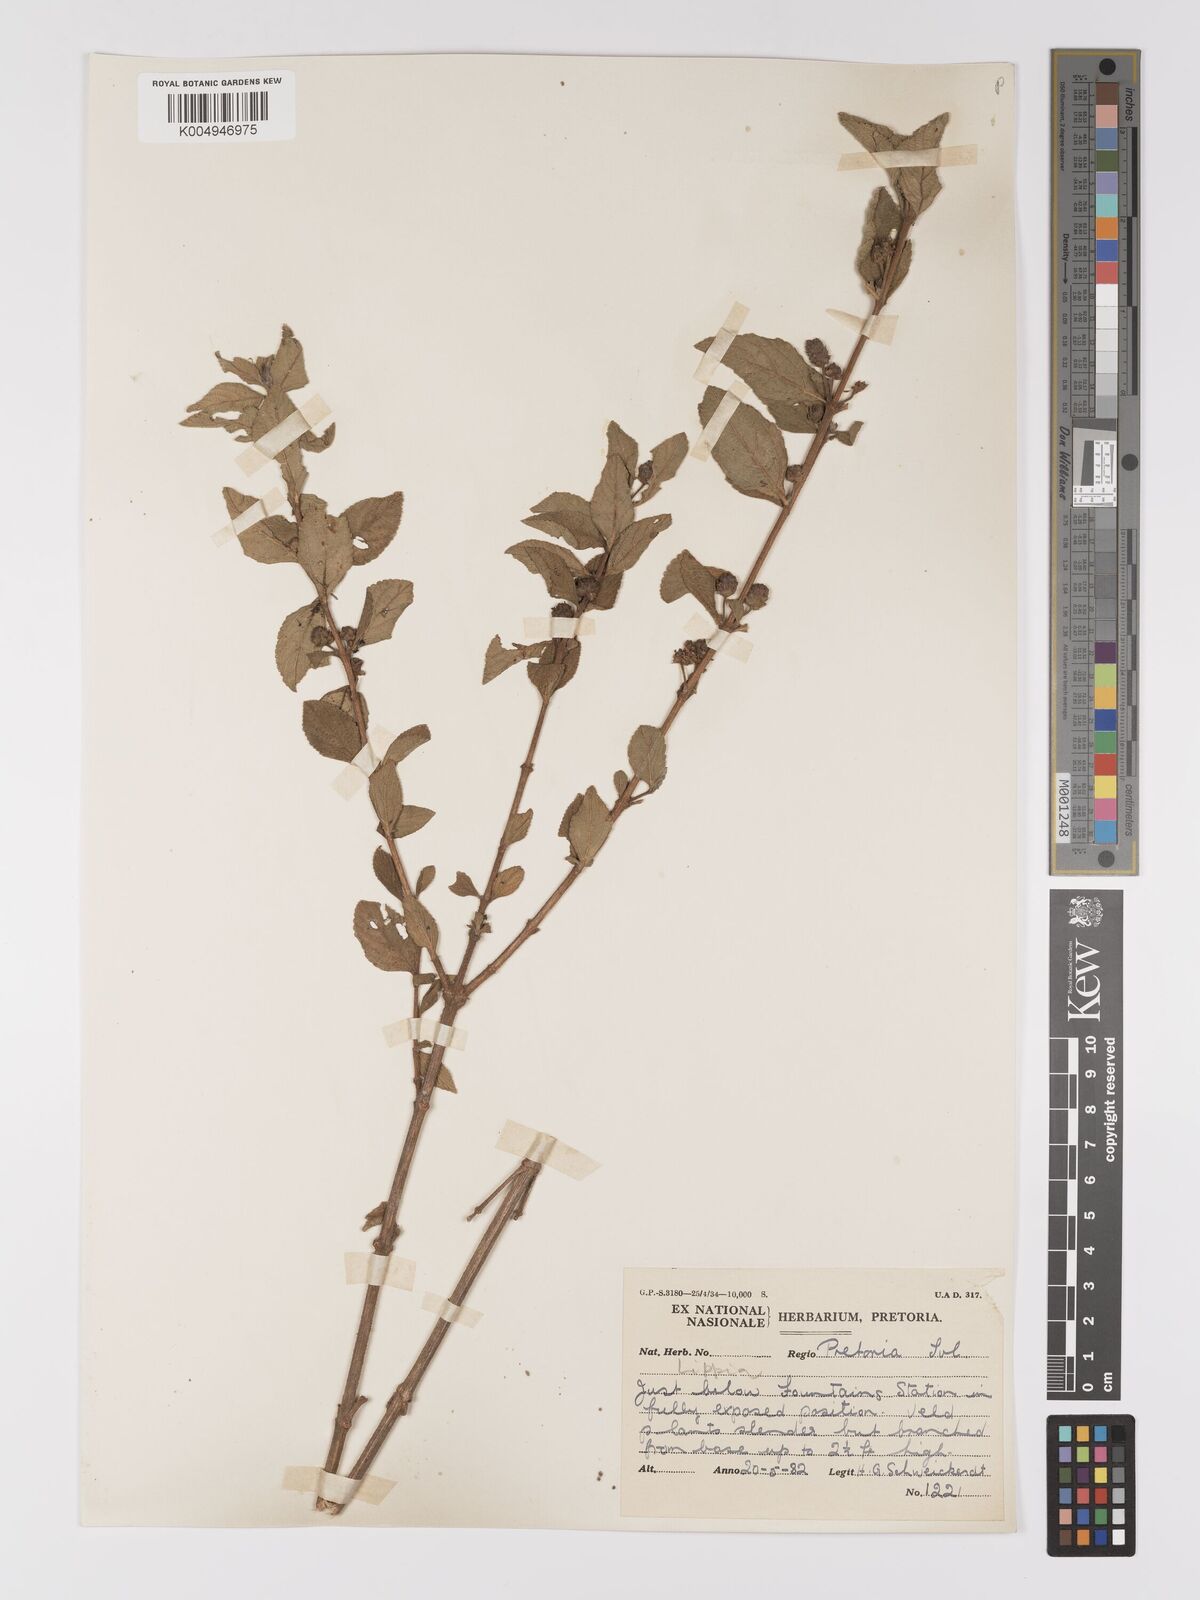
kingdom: Plantae
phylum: Tracheophyta
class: Magnoliopsida
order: Lamiales
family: Verbenaceae
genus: Lippia
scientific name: Lippia
